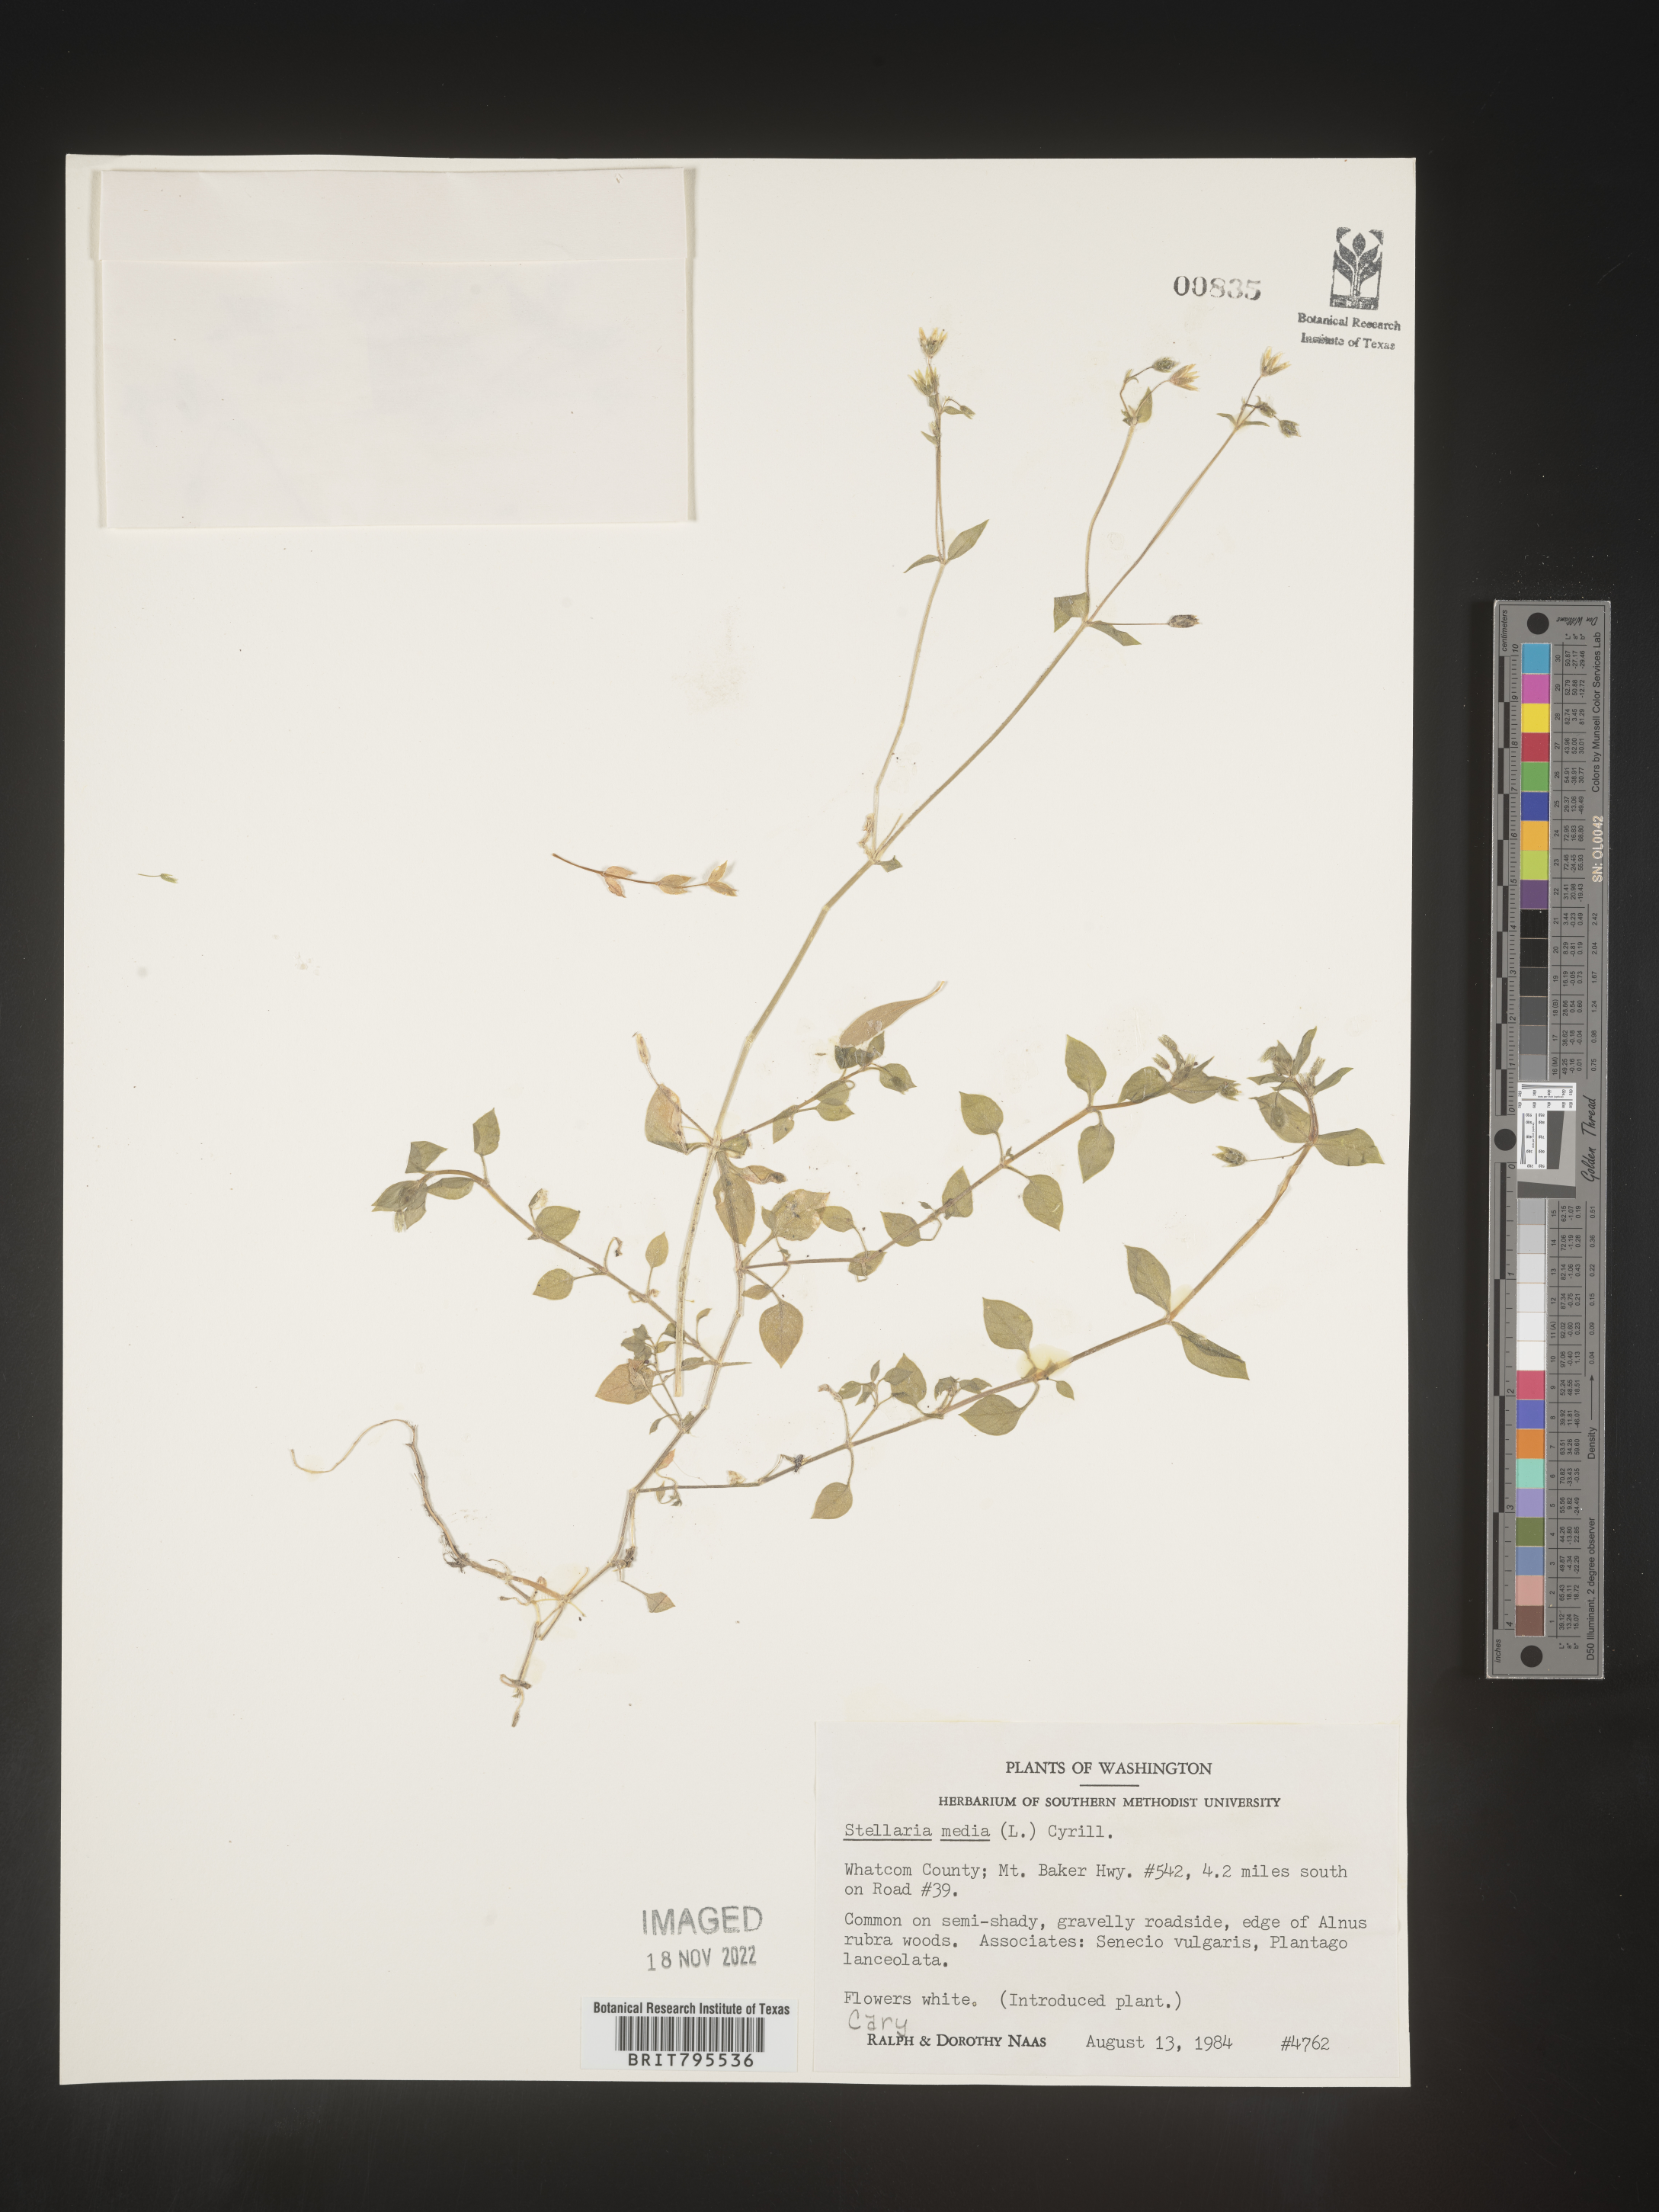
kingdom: Plantae
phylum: Tracheophyta
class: Magnoliopsida
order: Caryophyllales
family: Caryophyllaceae
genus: Stellaria
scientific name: Stellaria media
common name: Common chickweed
